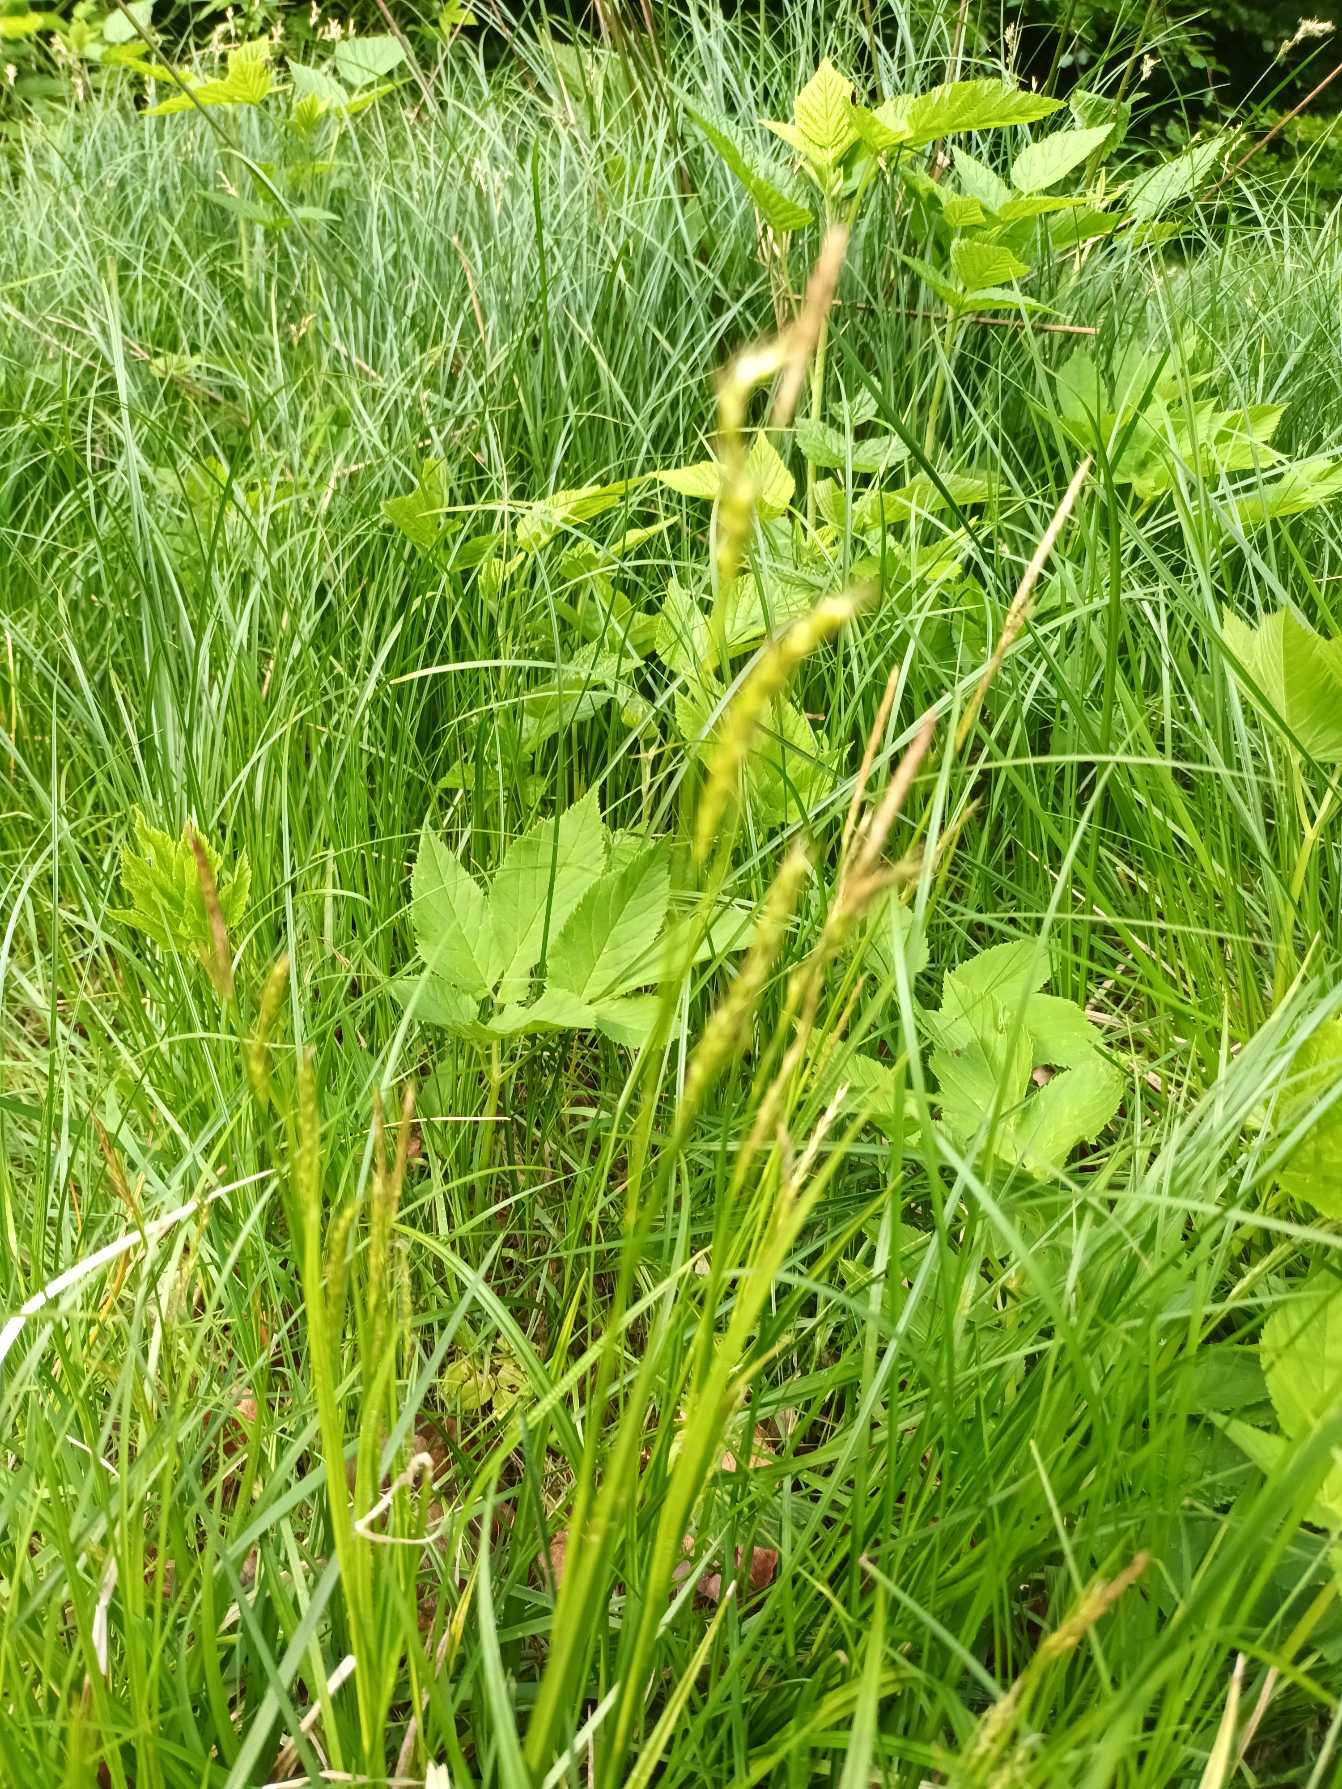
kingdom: Plantae
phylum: Tracheophyta
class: Liliopsida
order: Poales
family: Cyperaceae
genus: Carex
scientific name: Carex sylvatica
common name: Skov-star
